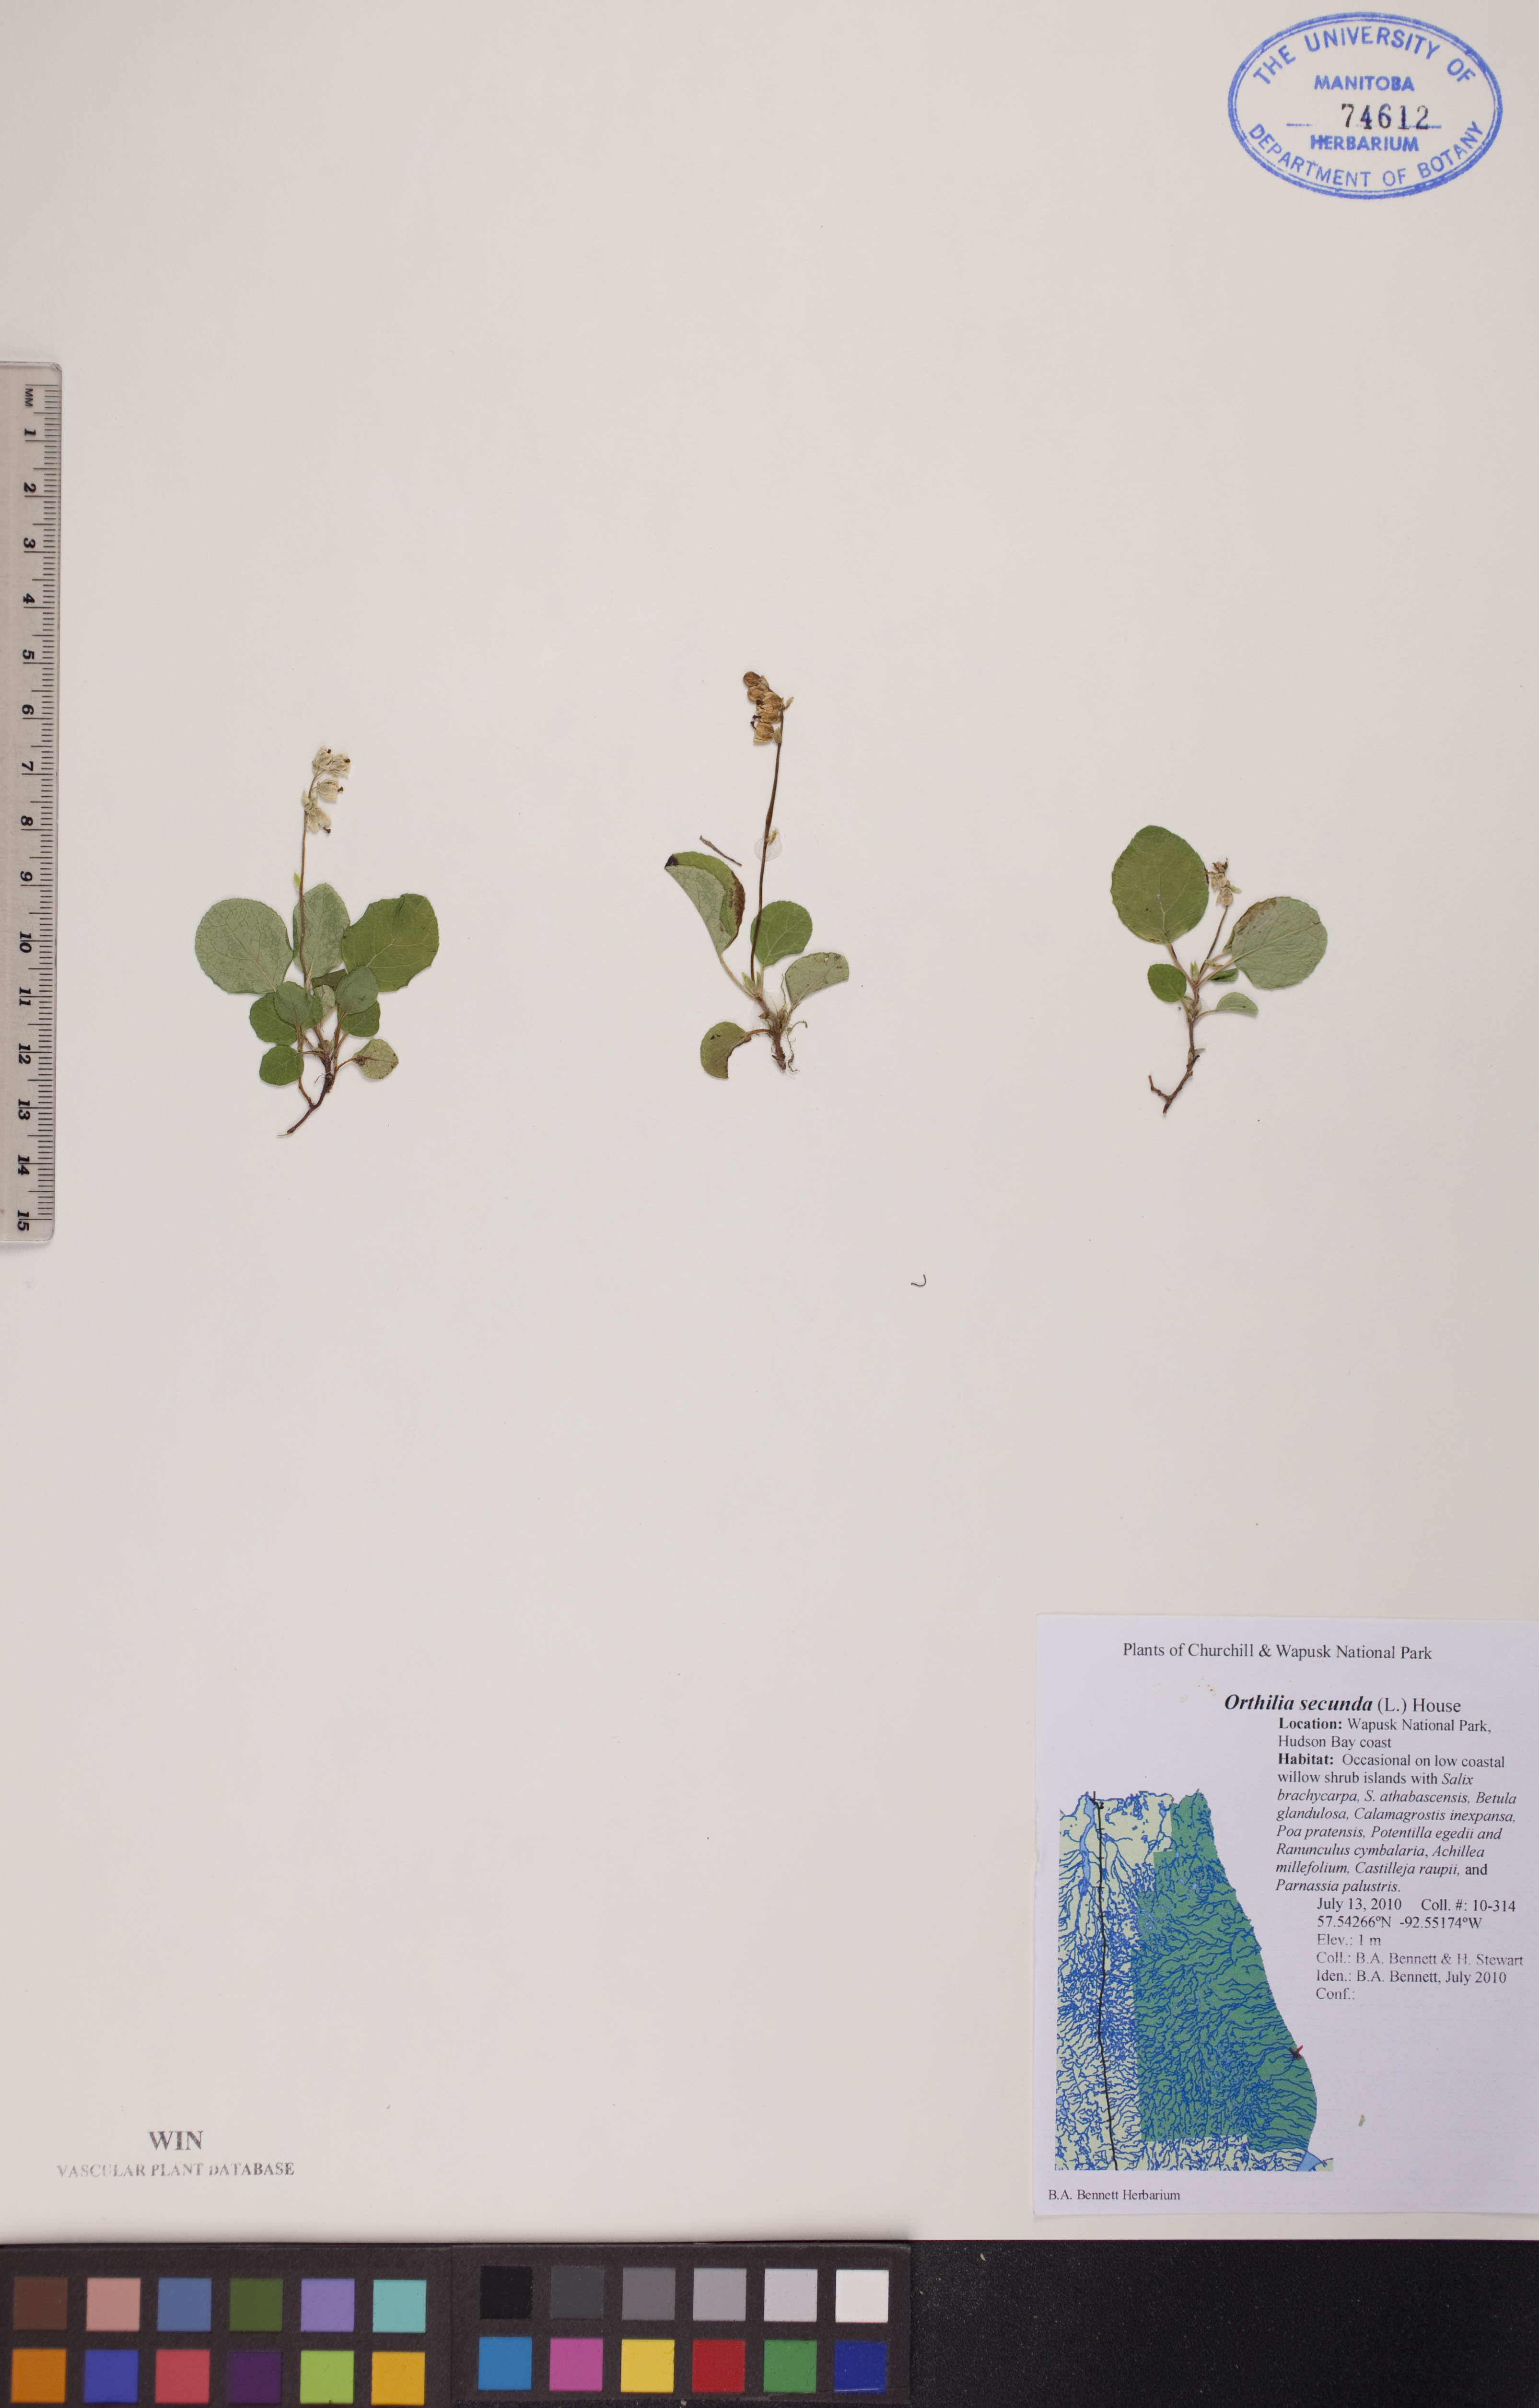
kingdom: Plantae
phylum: Tracheophyta
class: Magnoliopsida
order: Ericales
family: Ericaceae
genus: Orthilia
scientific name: Orthilia secunda
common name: One-sided orthilia
